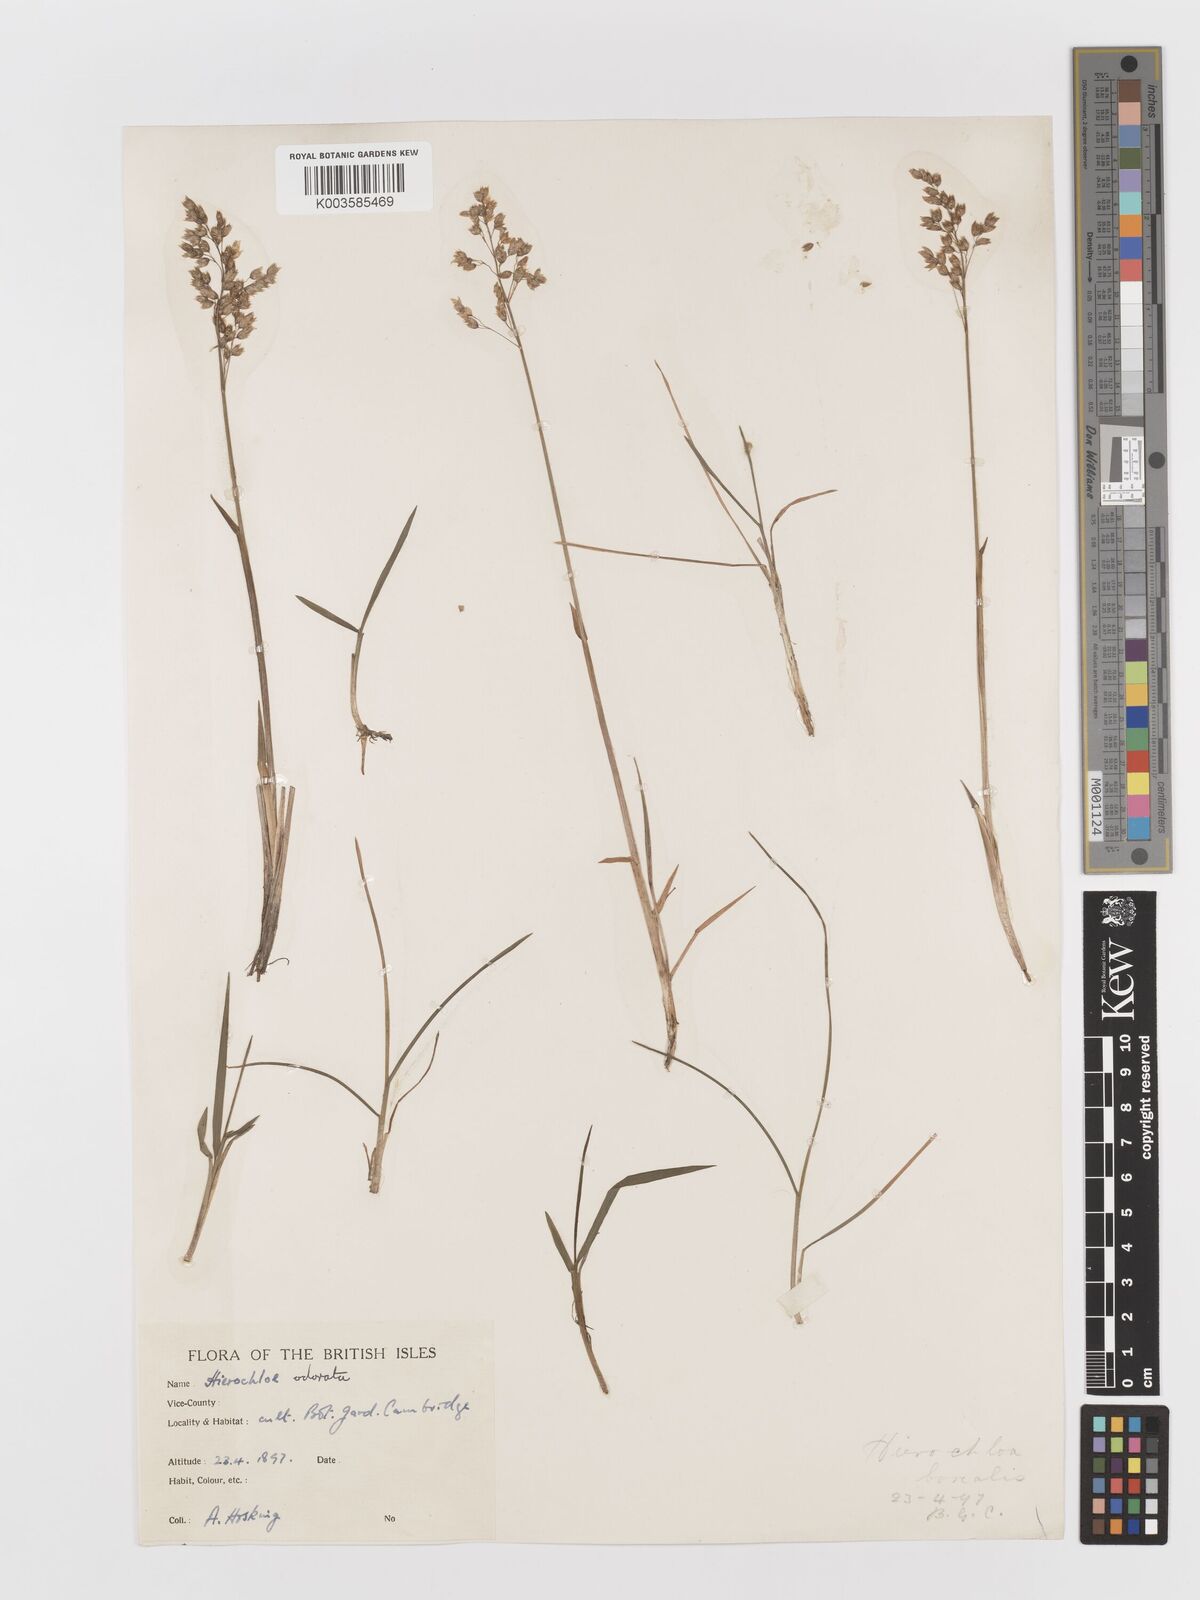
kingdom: Plantae
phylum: Tracheophyta
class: Liliopsida
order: Poales
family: Poaceae
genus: Anthoxanthum
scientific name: Anthoxanthum nitens
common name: Holy grass
